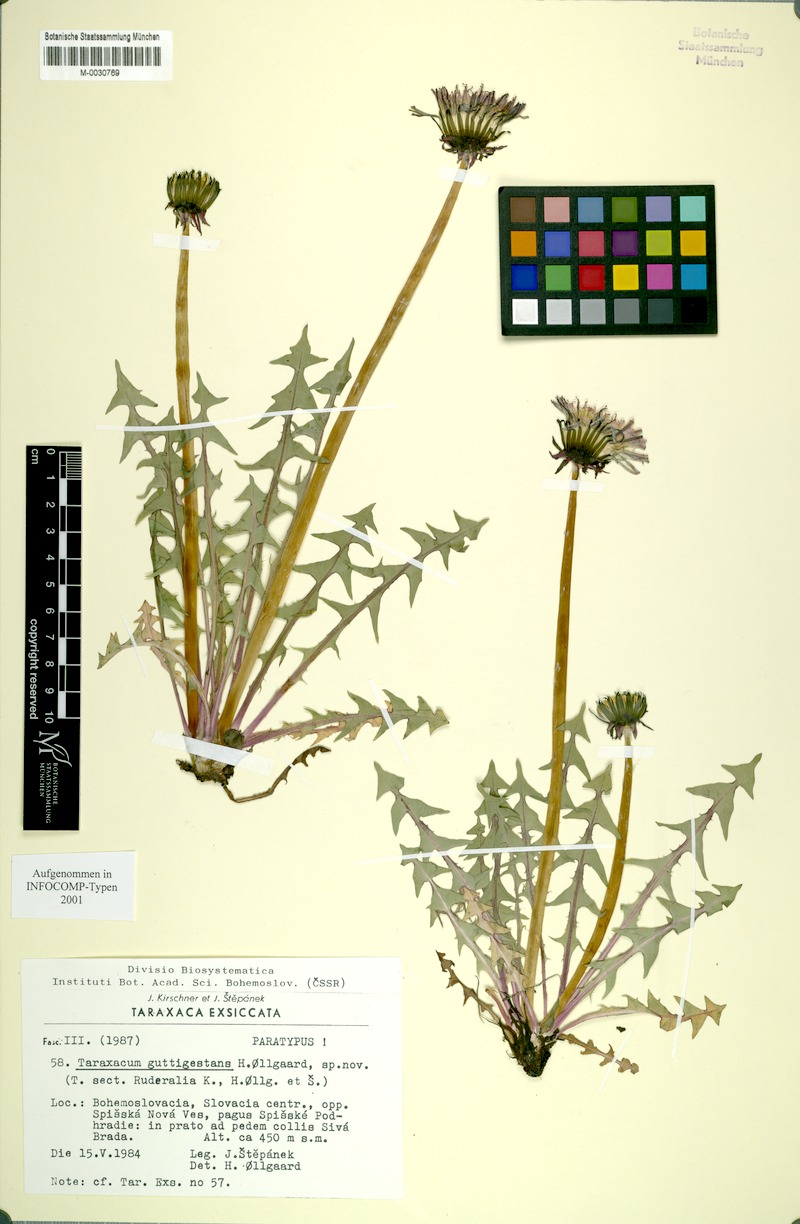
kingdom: Plantae
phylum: Tracheophyta
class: Magnoliopsida
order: Asterales
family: Asteraceae
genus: Taraxacum
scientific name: Taraxacum guttigestans
